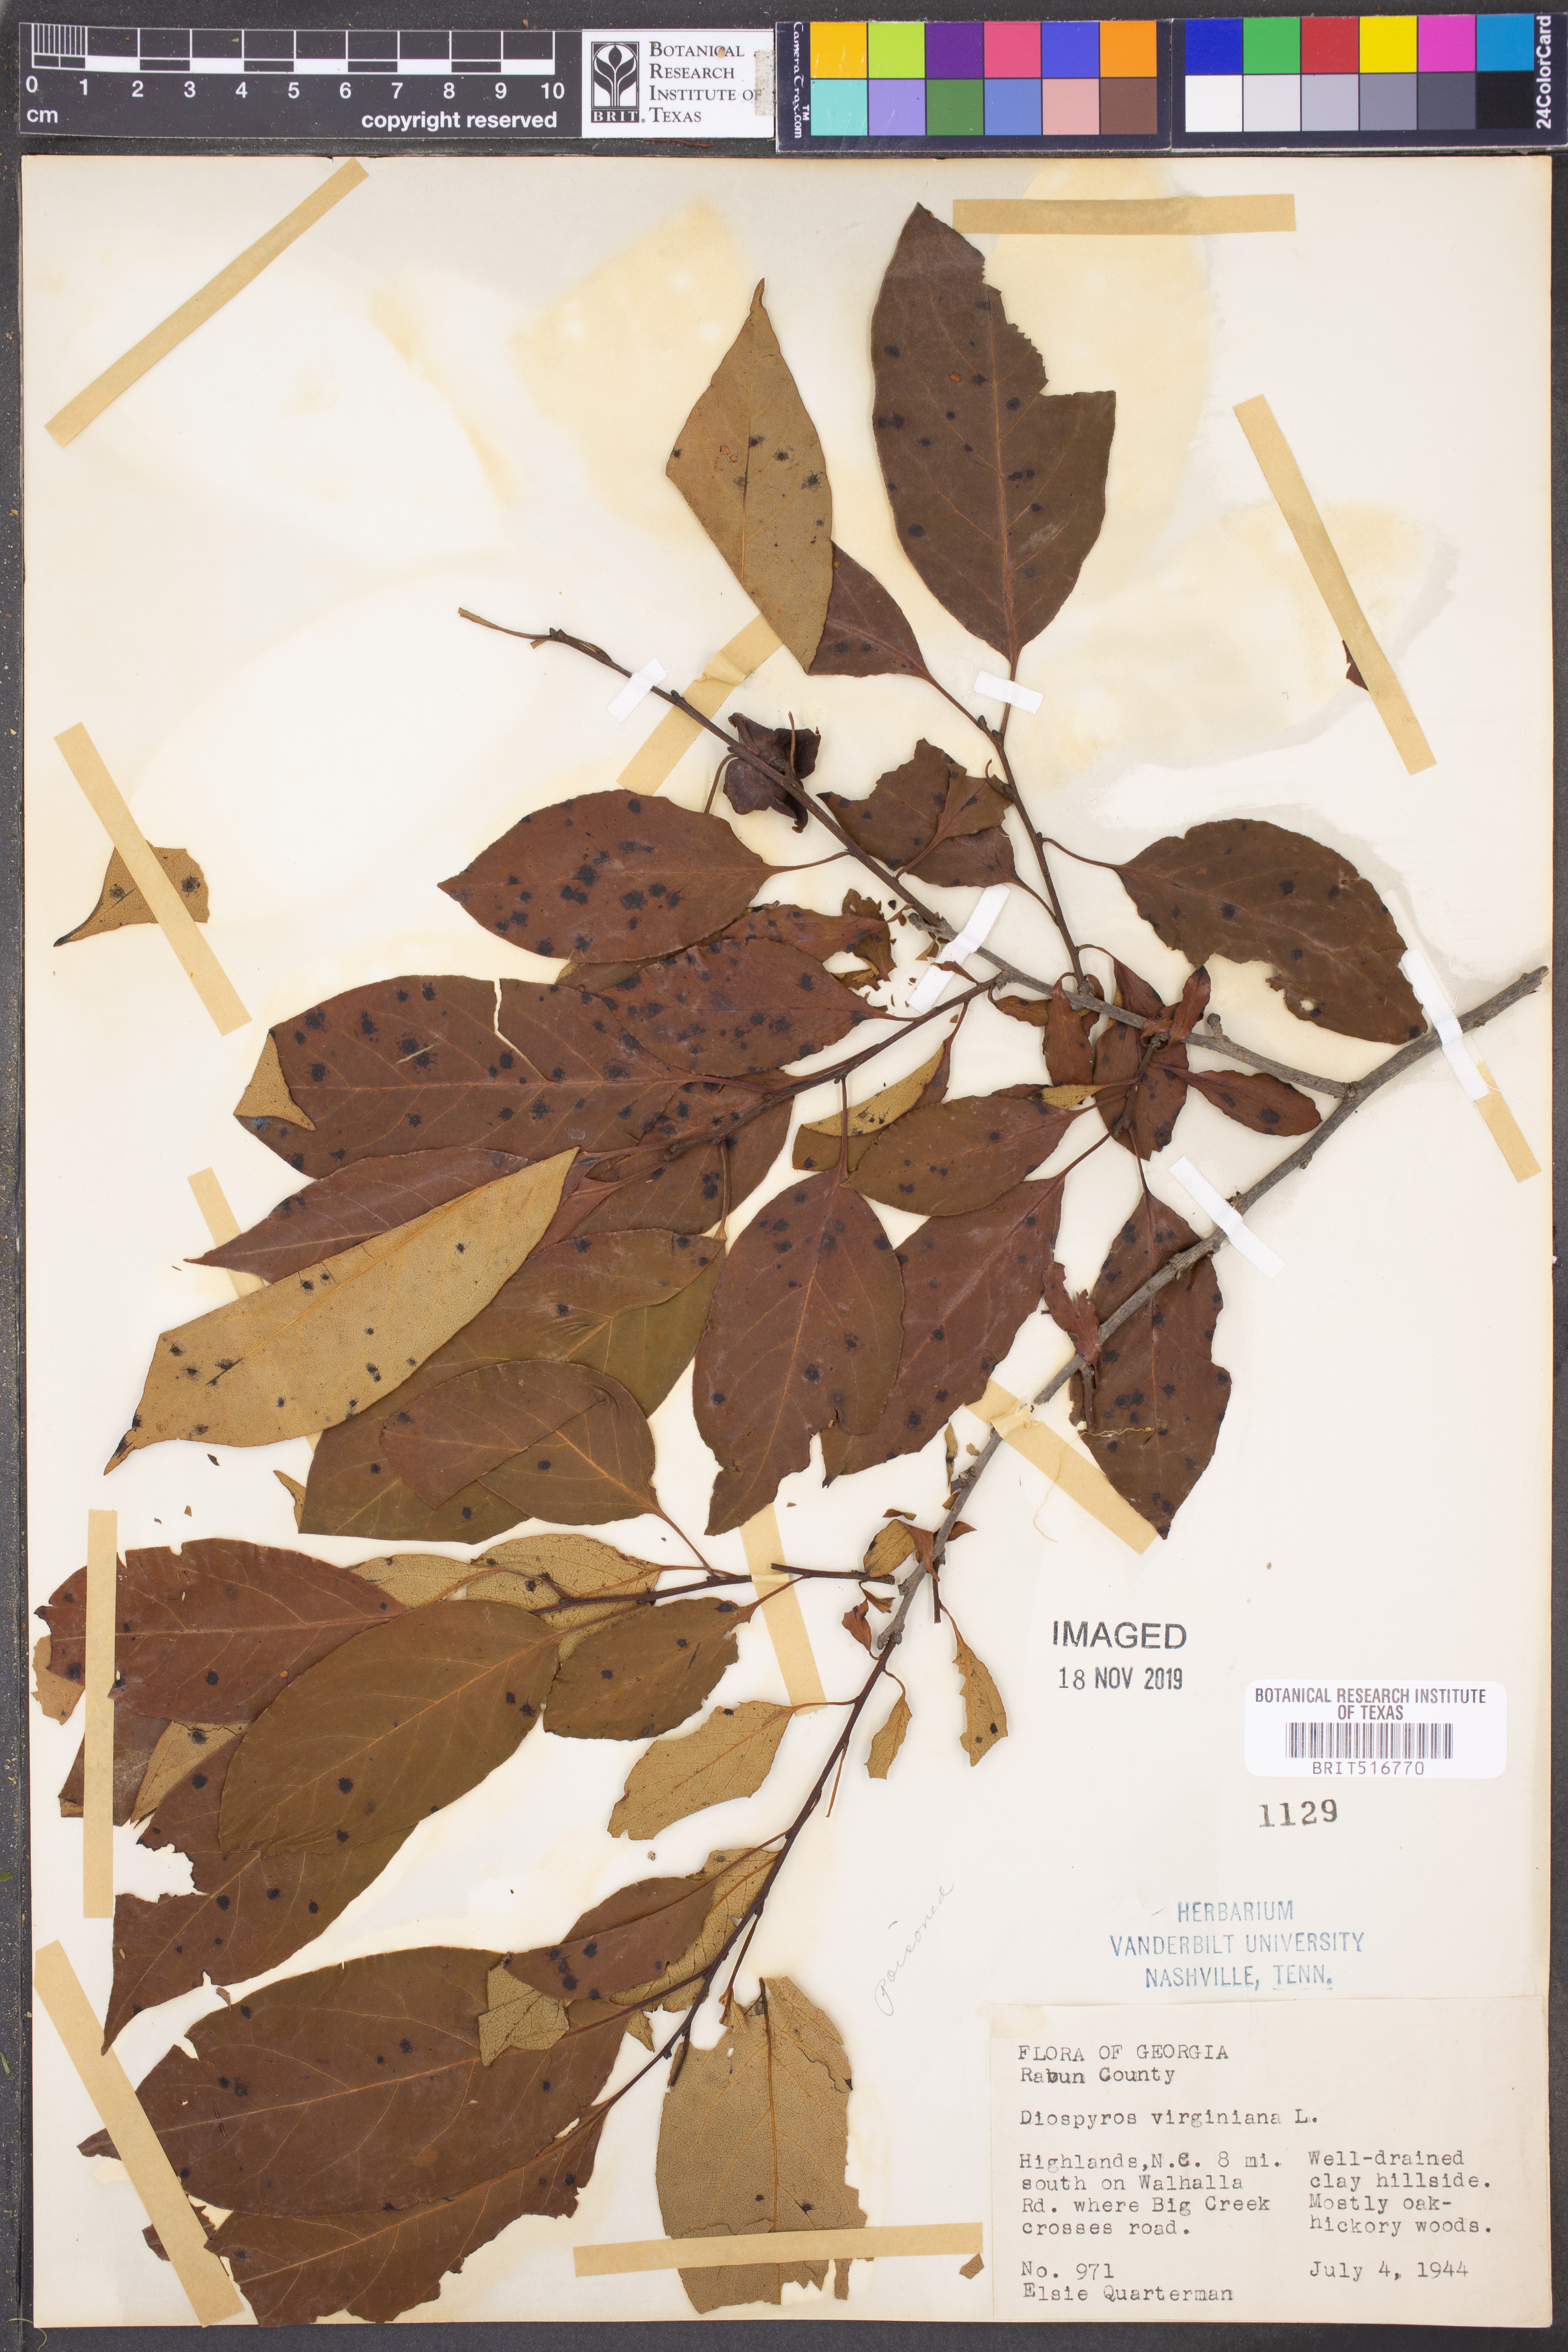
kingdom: Plantae
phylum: Tracheophyta
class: Magnoliopsida
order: Ericales
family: Ebenaceae
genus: Diospyros
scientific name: Diospyros virginiana
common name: Persimmon
